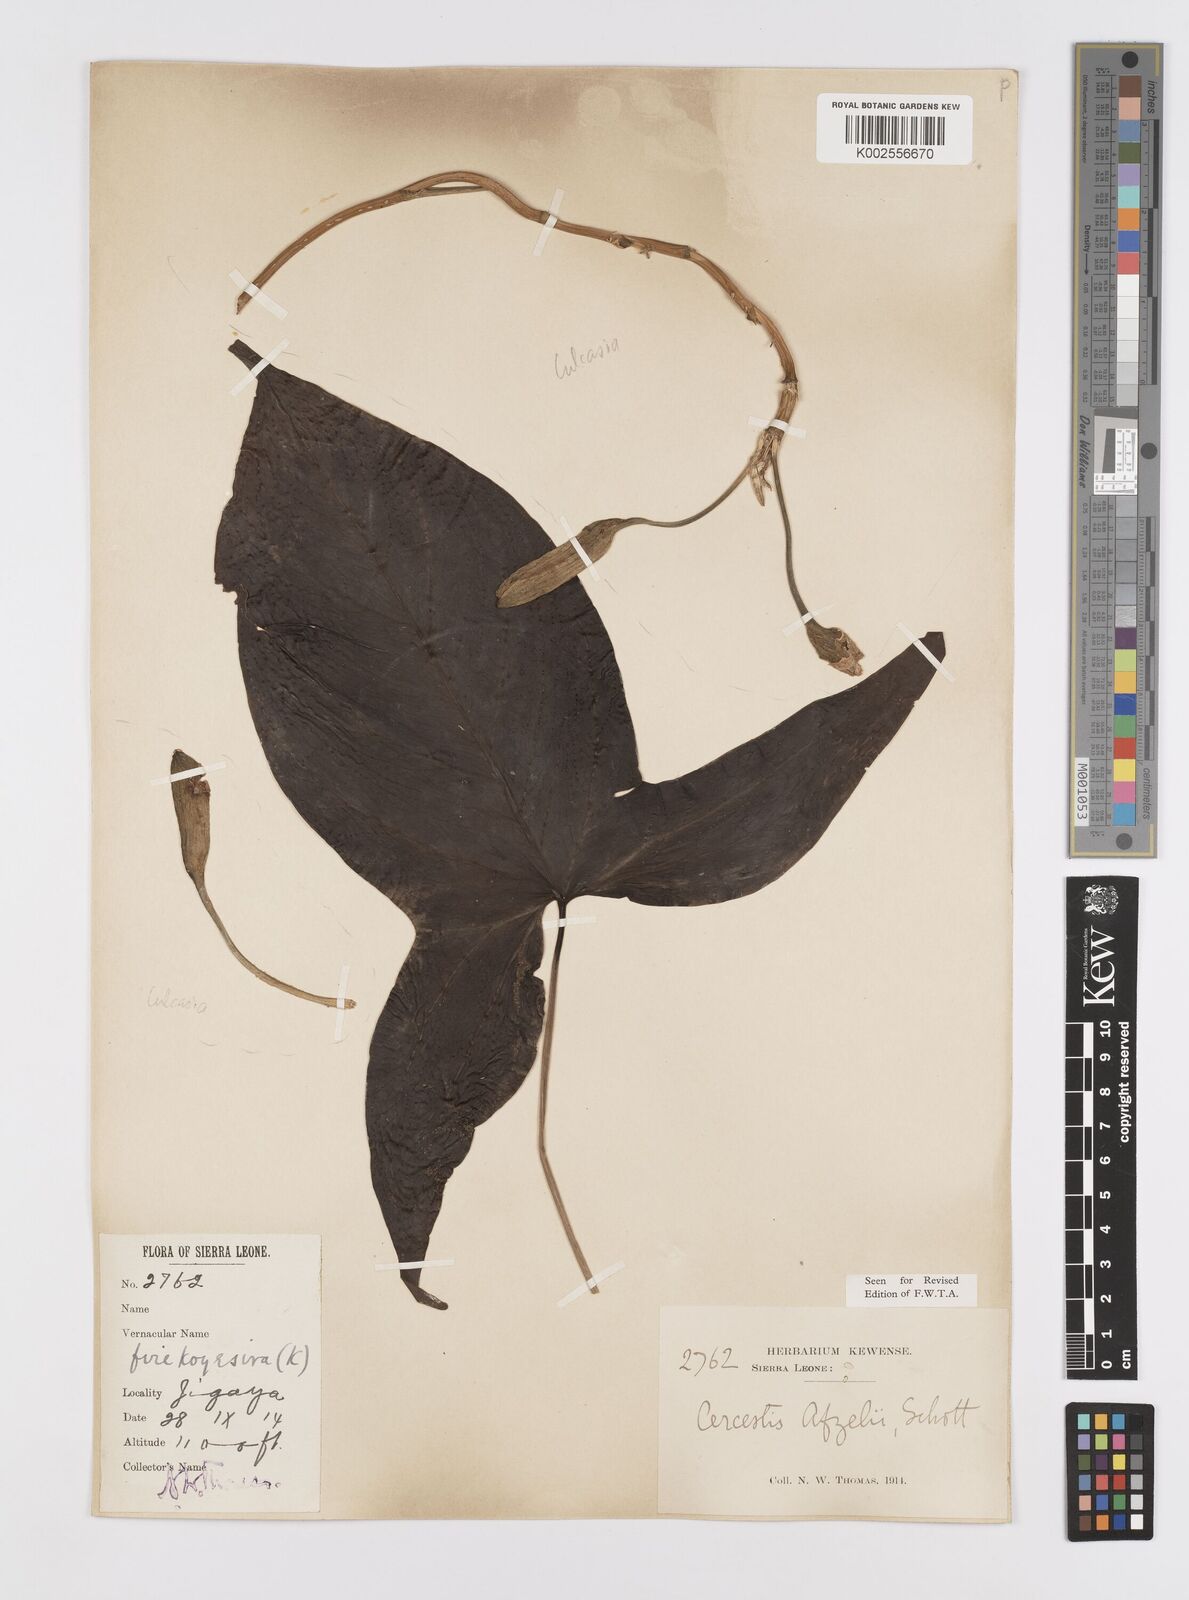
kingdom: Plantae
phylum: Tracheophyta
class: Liliopsida
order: Alismatales
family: Araceae
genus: Cercestis
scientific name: Cercestis afzelii
